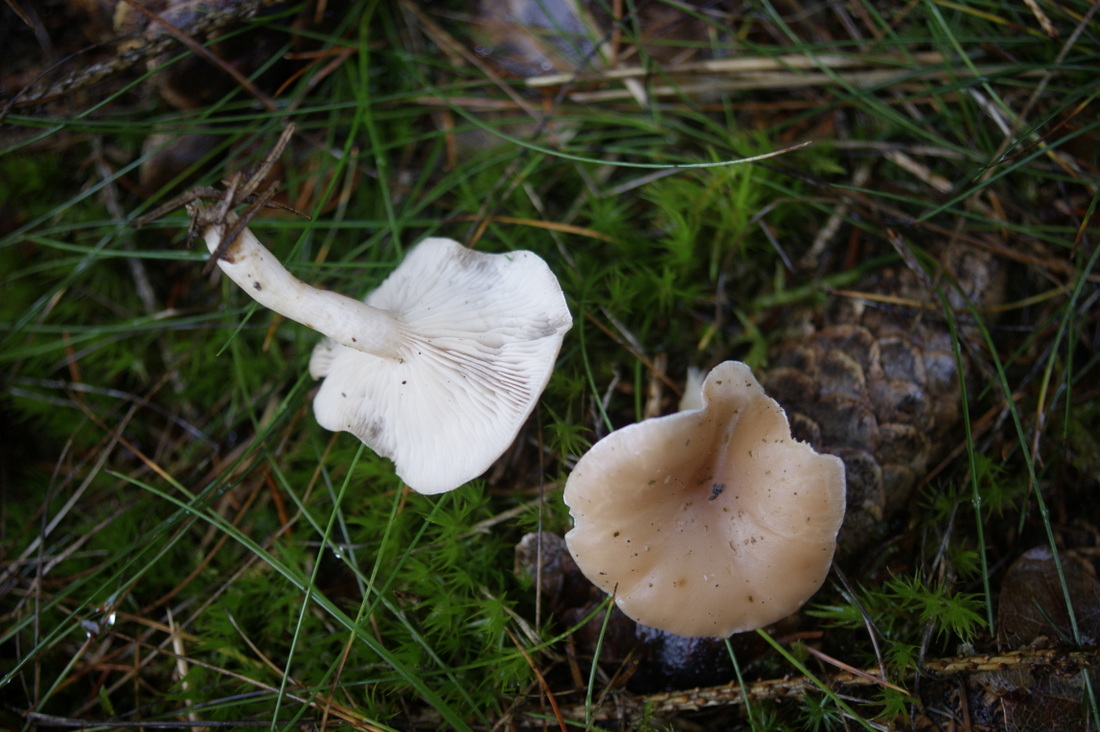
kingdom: Fungi
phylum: Basidiomycota
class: Agaricomycetes
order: Agaricales
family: Tricholomataceae
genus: Clitocybe
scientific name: Clitocybe diatreta
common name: kødfarvet tragthat
